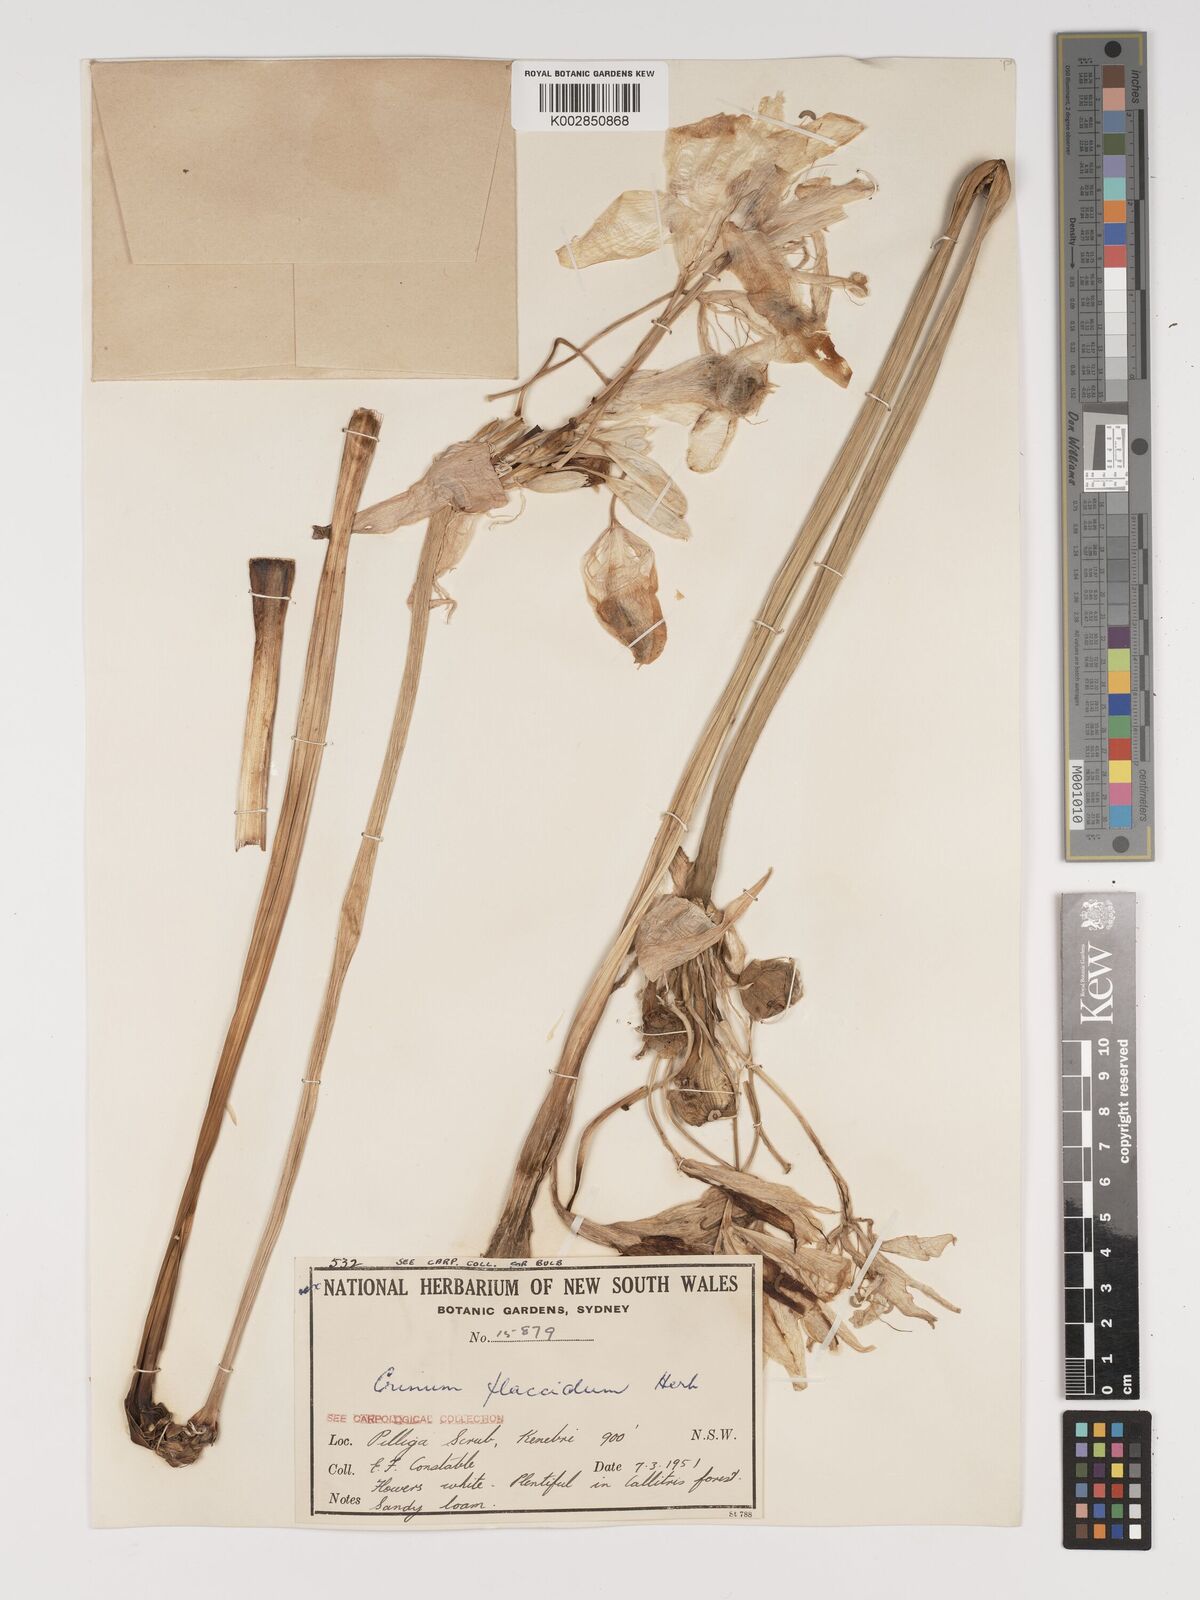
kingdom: Plantae
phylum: Tracheophyta
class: Liliopsida
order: Asparagales
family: Amaryllidaceae
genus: Crinum
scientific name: Crinum flaccidum
